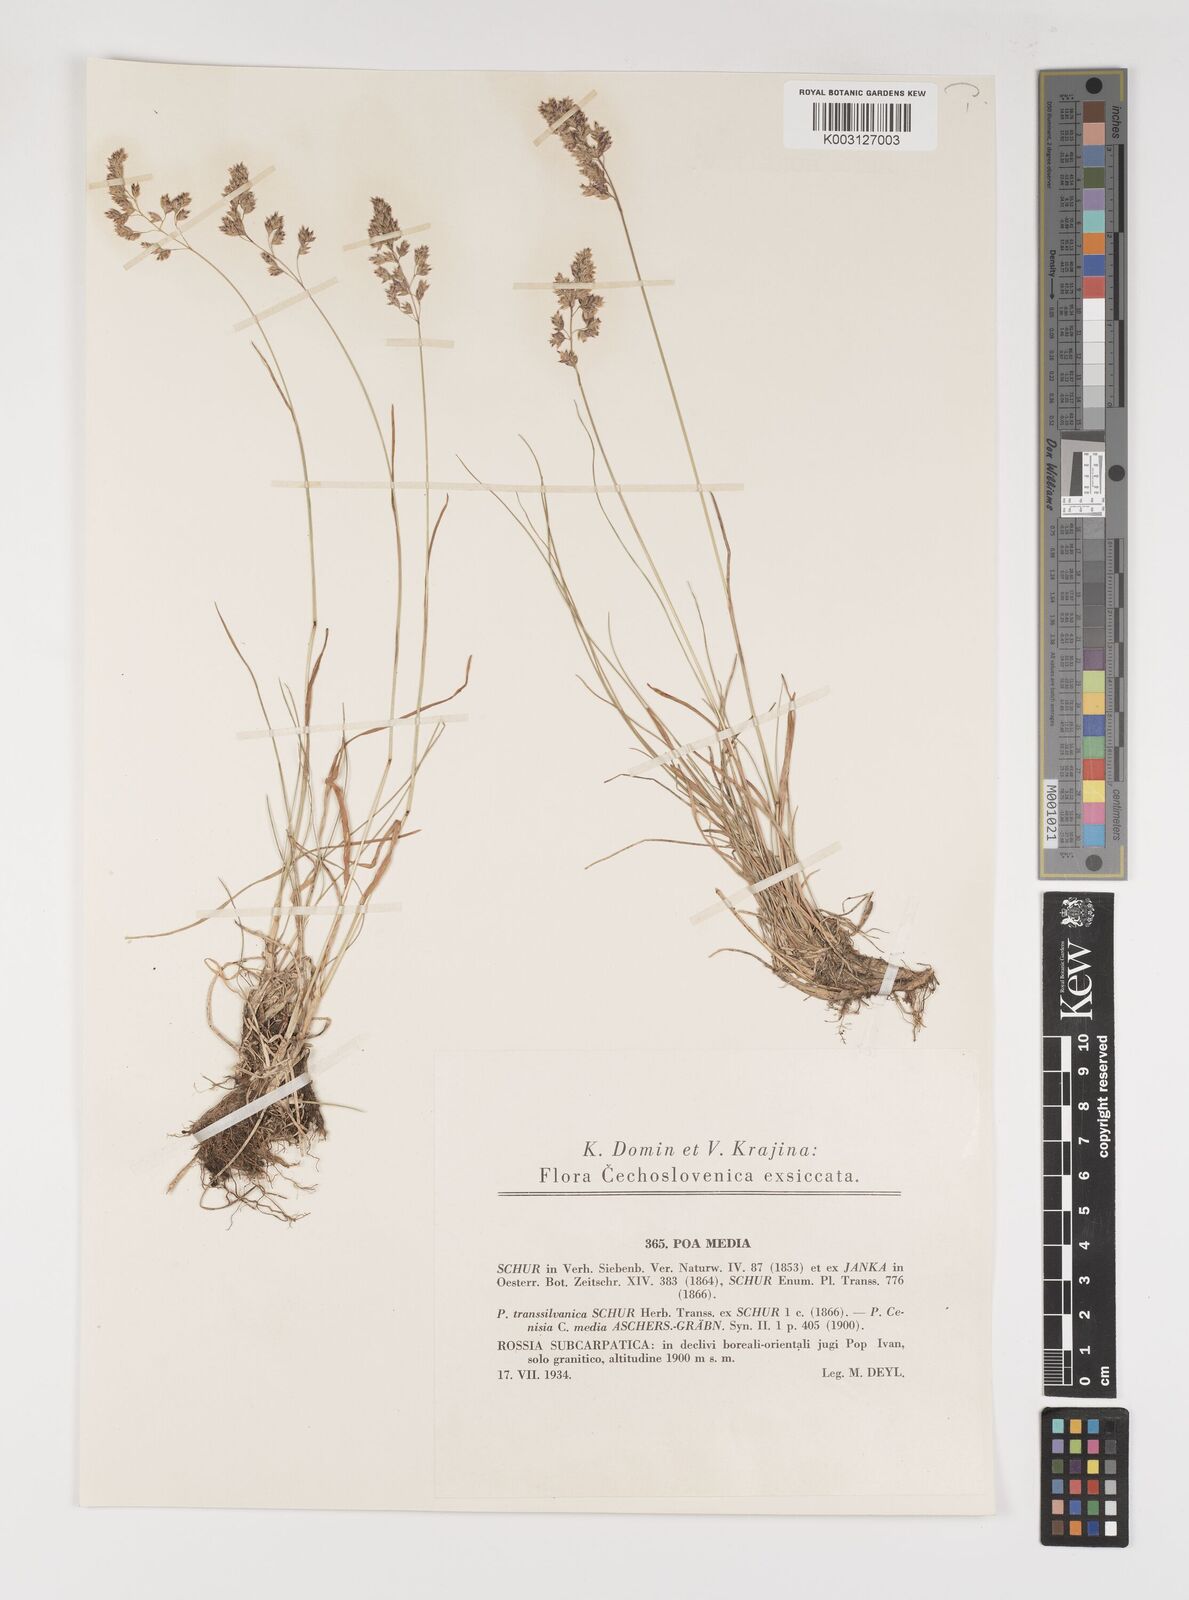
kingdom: Plantae
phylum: Tracheophyta
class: Liliopsida
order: Poales
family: Poaceae
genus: Poa
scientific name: Poa ursina
